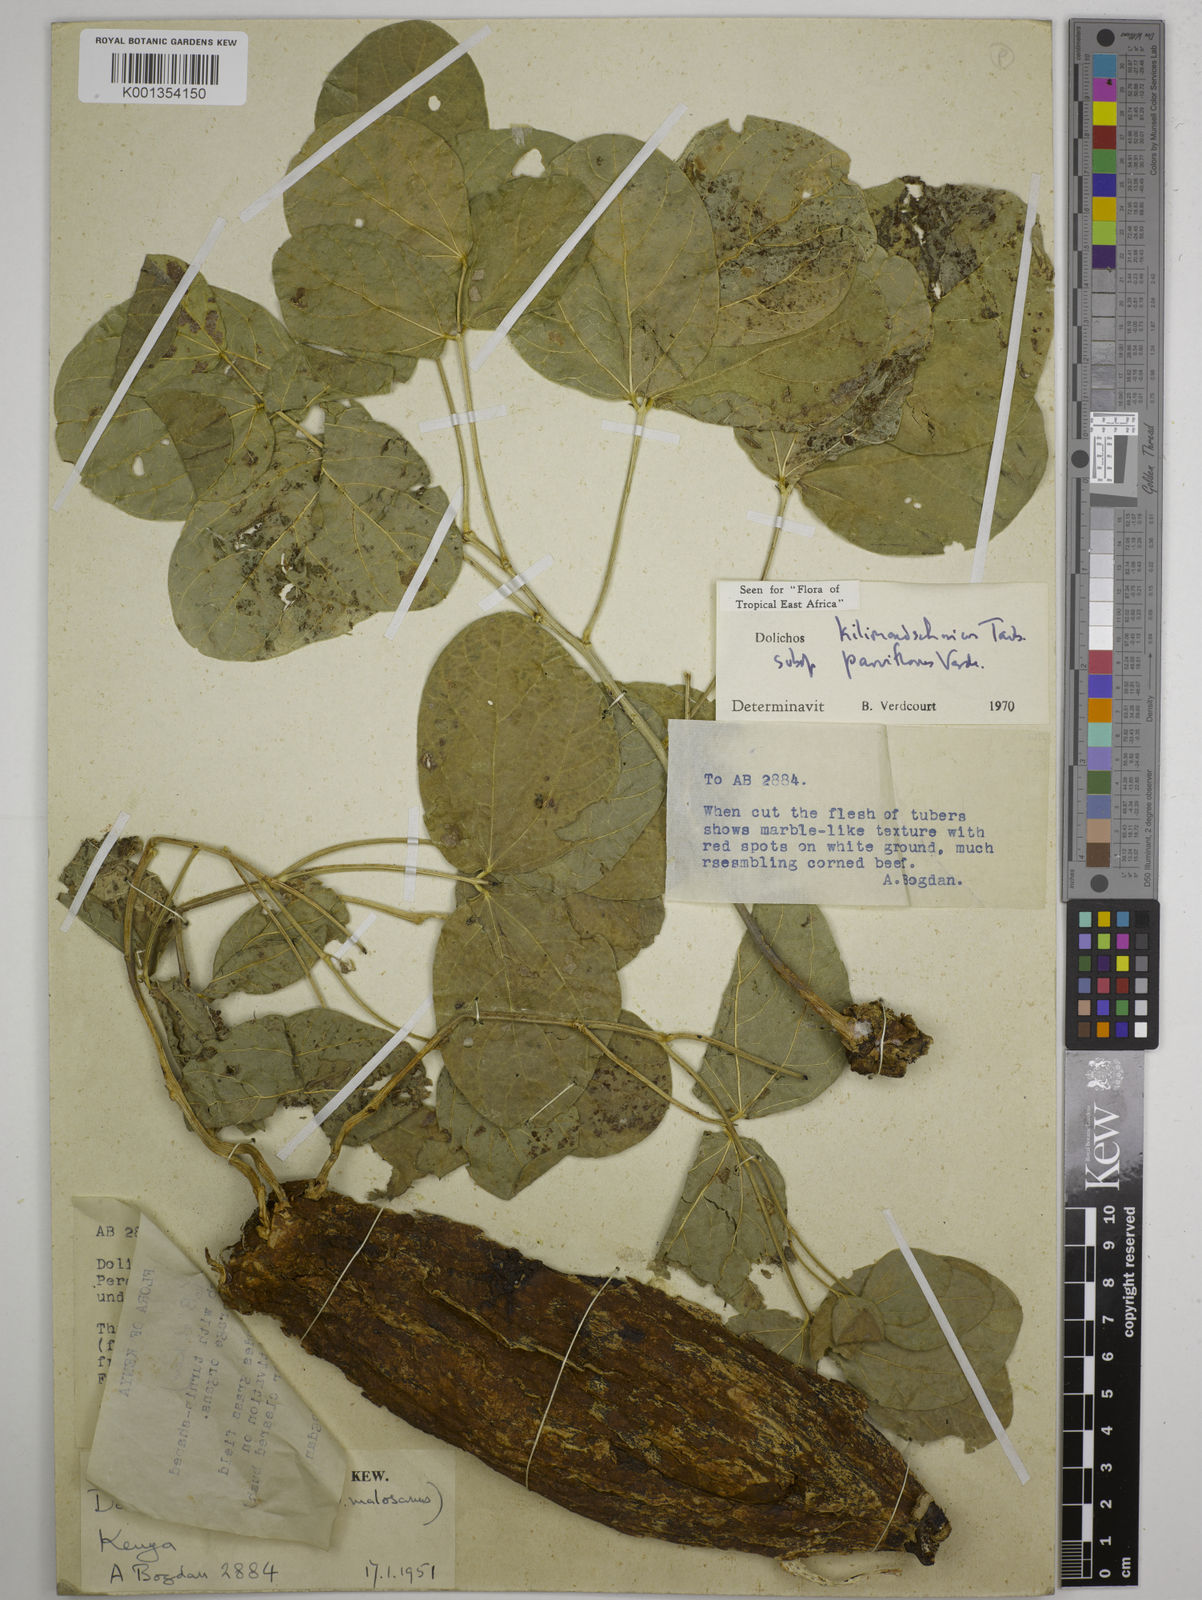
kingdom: Plantae
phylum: Tracheophyta
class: Magnoliopsida
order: Fabales
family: Fabaceae
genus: Dolichos
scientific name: Dolichos
